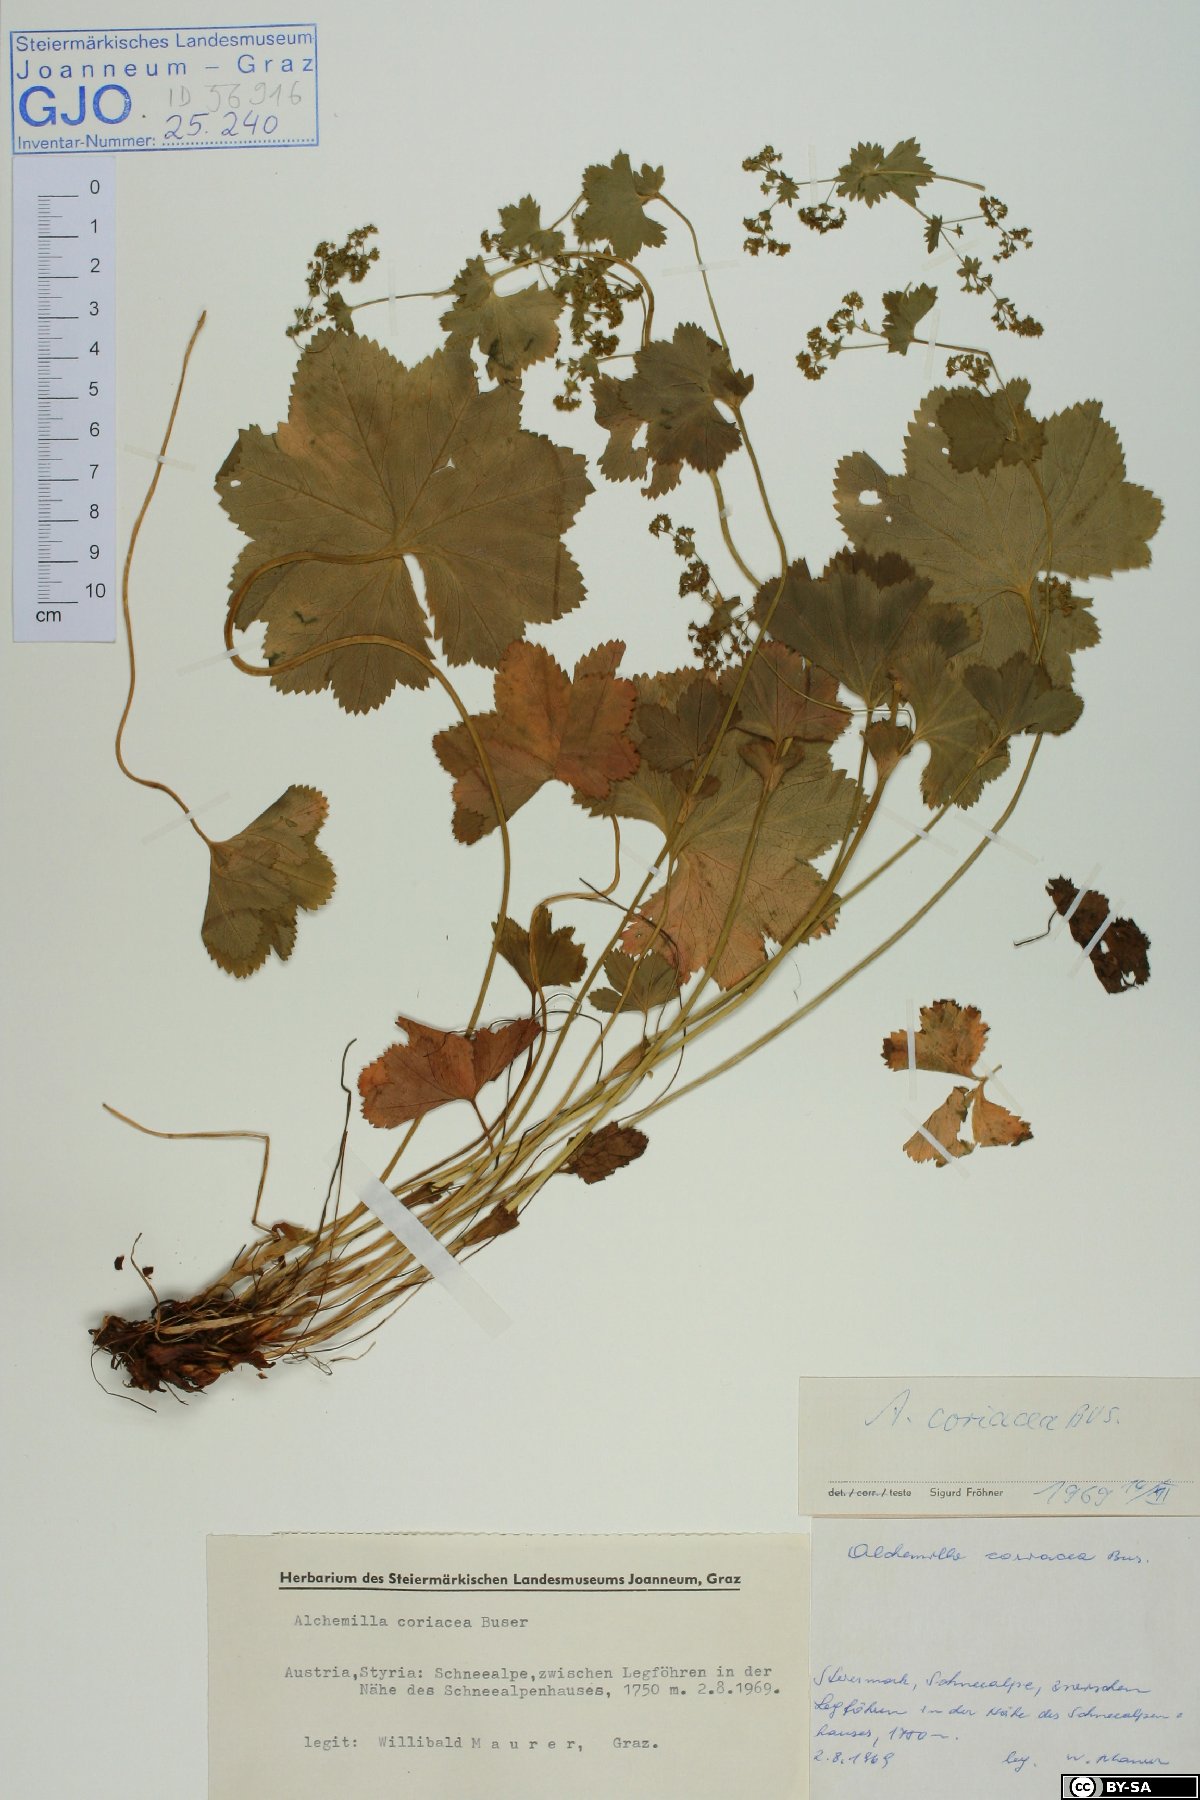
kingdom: Plantae
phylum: Tracheophyta
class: Magnoliopsida
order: Rosales
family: Rosaceae
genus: Alchemilla
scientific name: Alchemilla coriacea
